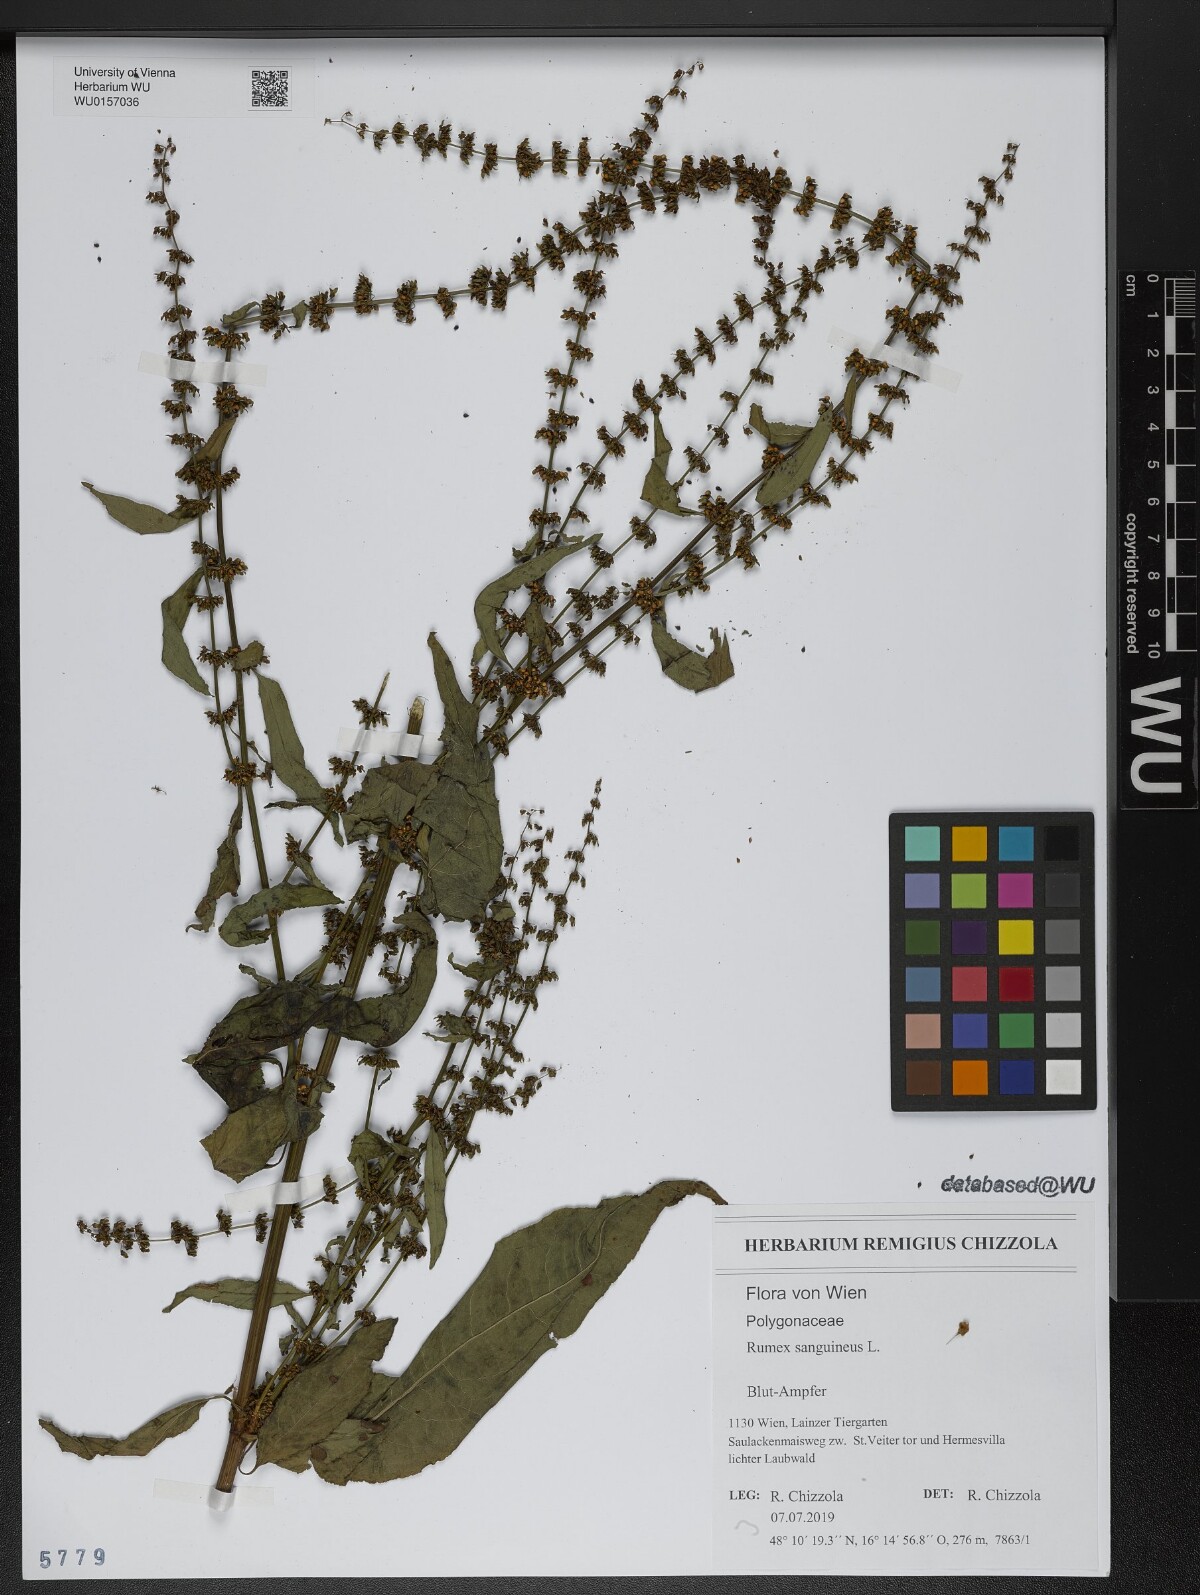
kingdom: Plantae
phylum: Tracheophyta
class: Magnoliopsida
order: Caryophyllales
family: Polygonaceae
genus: Rumex
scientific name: Rumex sanguineus
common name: Wood dock
